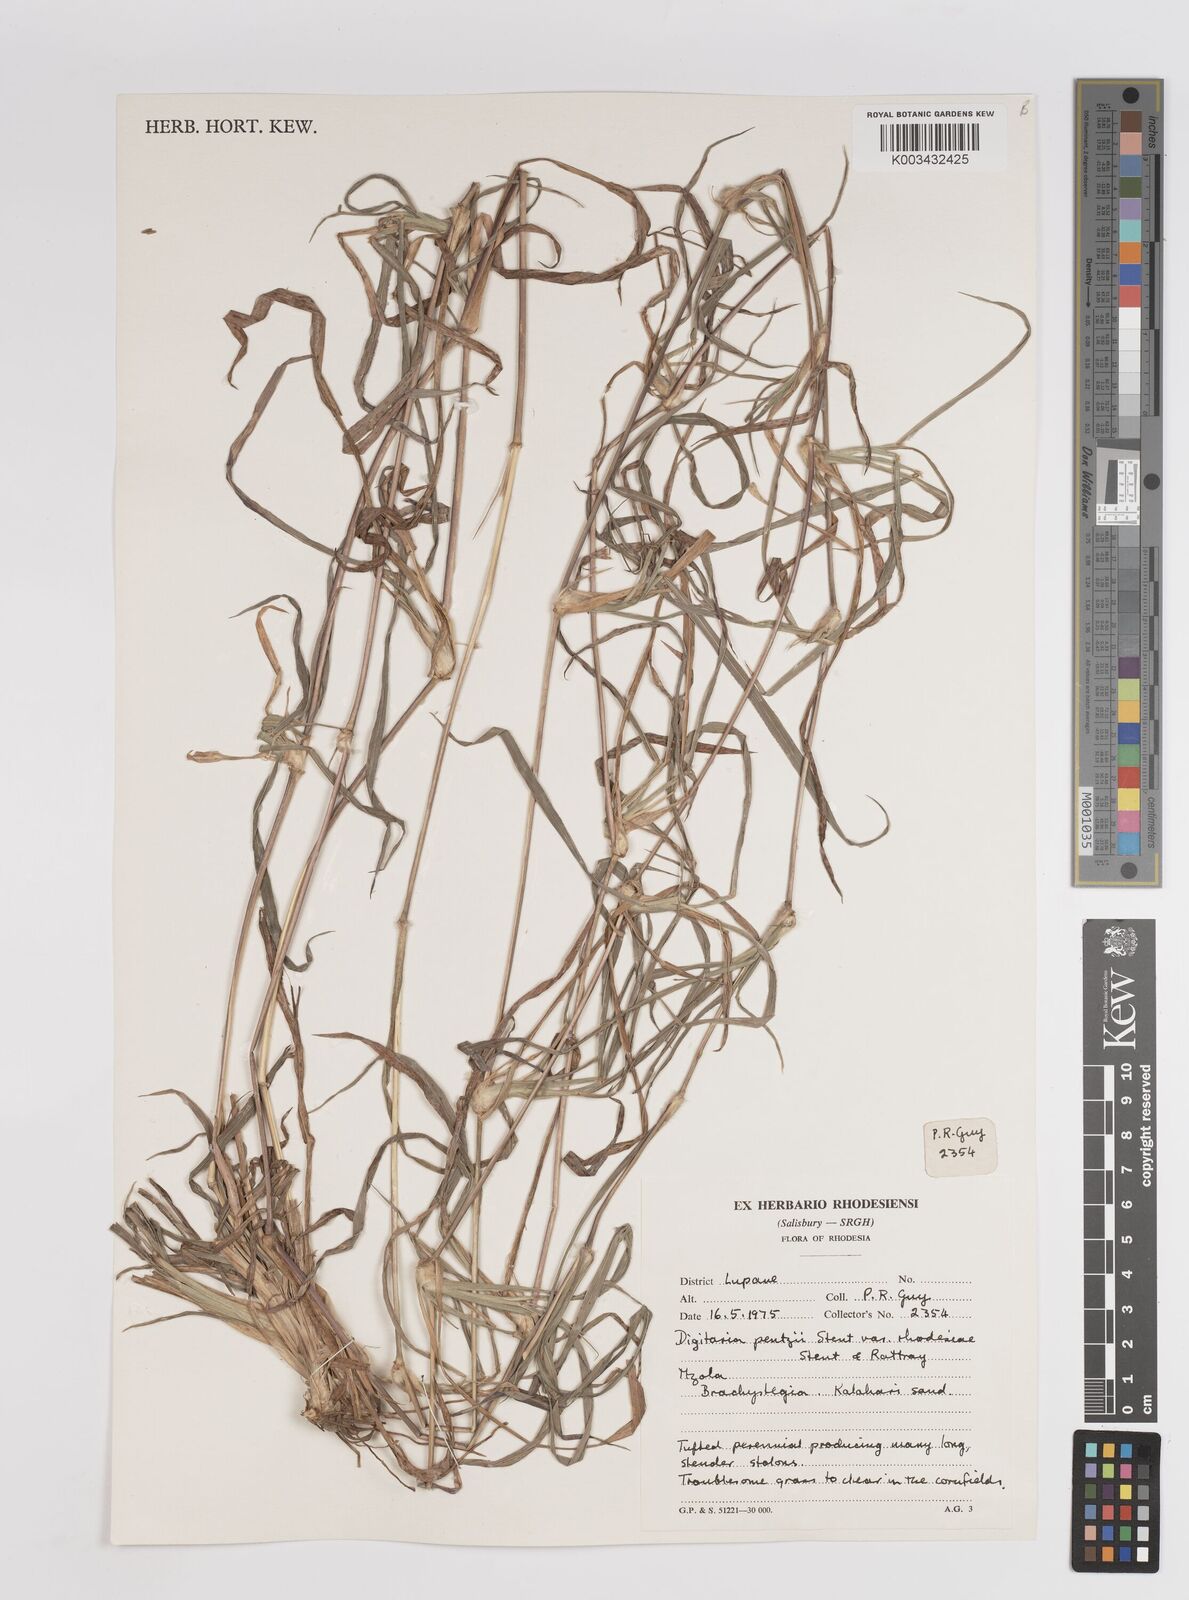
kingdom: Plantae
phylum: Tracheophyta
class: Liliopsida
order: Poales
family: Poaceae
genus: Digitaria
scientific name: Digitaria eriantha
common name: Digitgrass
